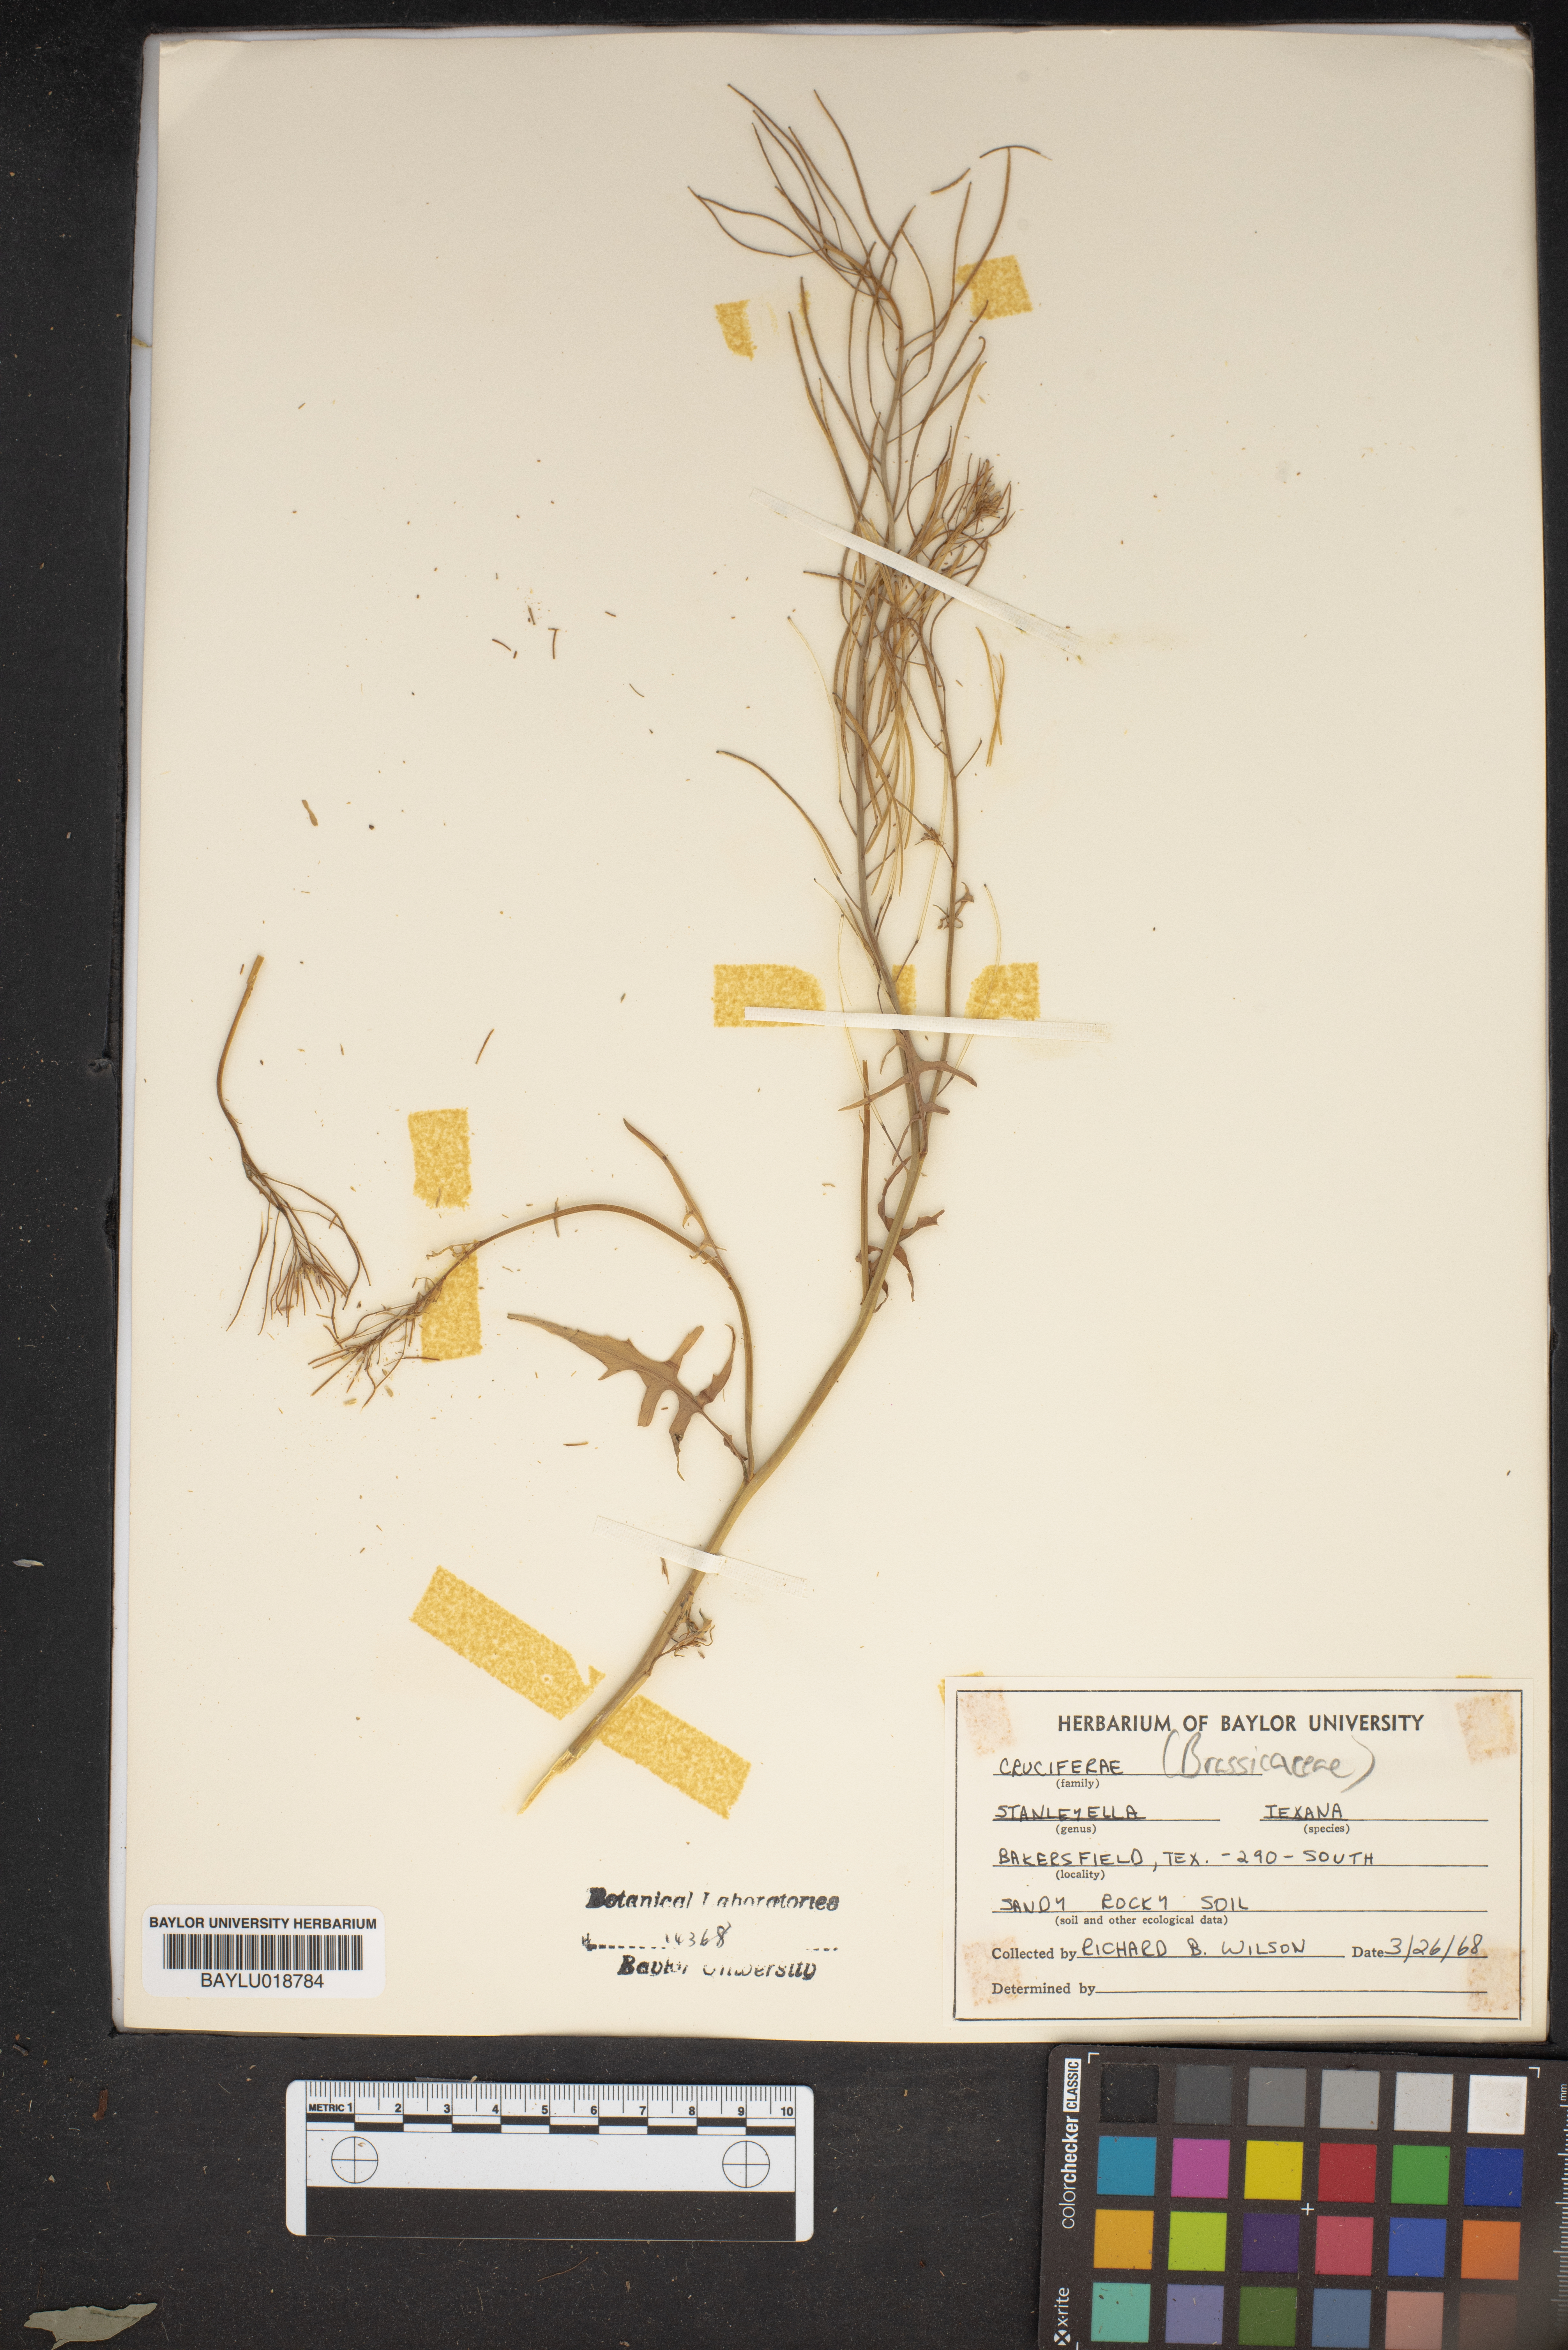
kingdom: Plantae
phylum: Tracheophyta
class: Magnoliopsida
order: Brassicales
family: Brassicaceae
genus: Thelypodium
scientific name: Thelypodium texanum
